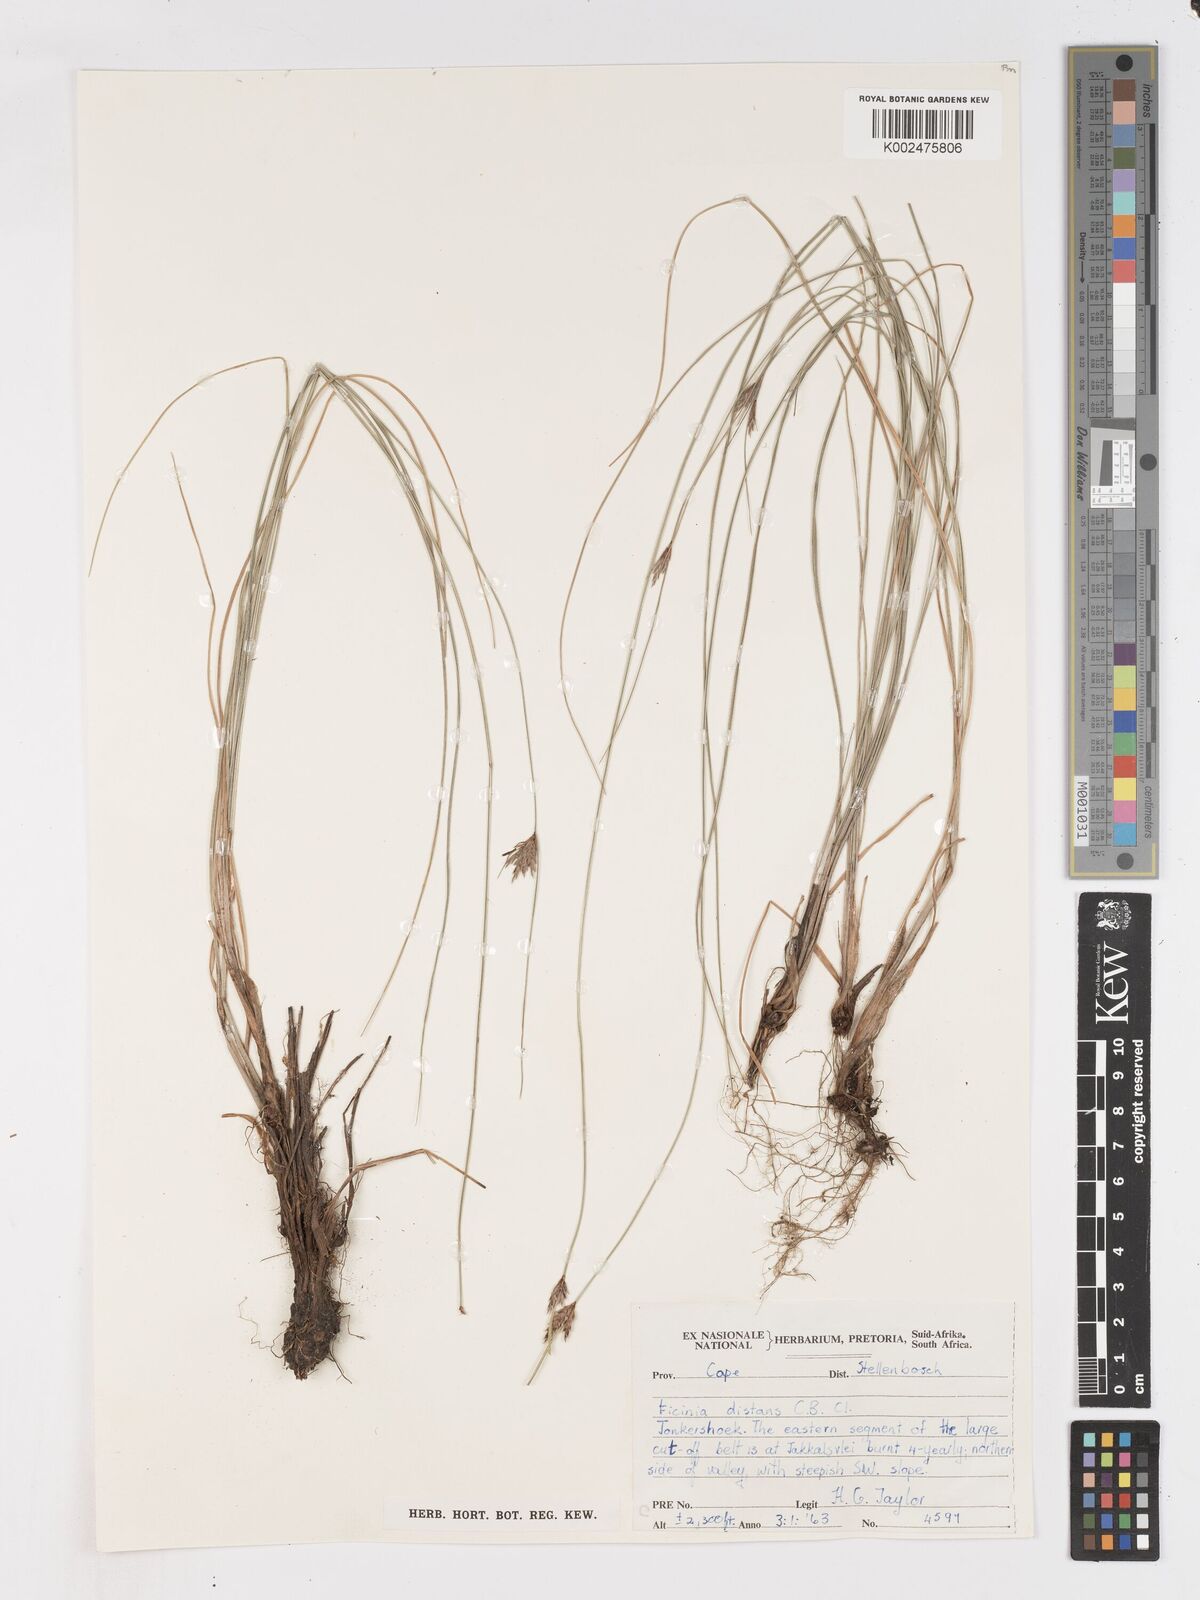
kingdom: Plantae
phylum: Tracheophyta
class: Liliopsida
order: Poales
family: Cyperaceae
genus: Ficinia
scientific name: Ficinia angustifolia
